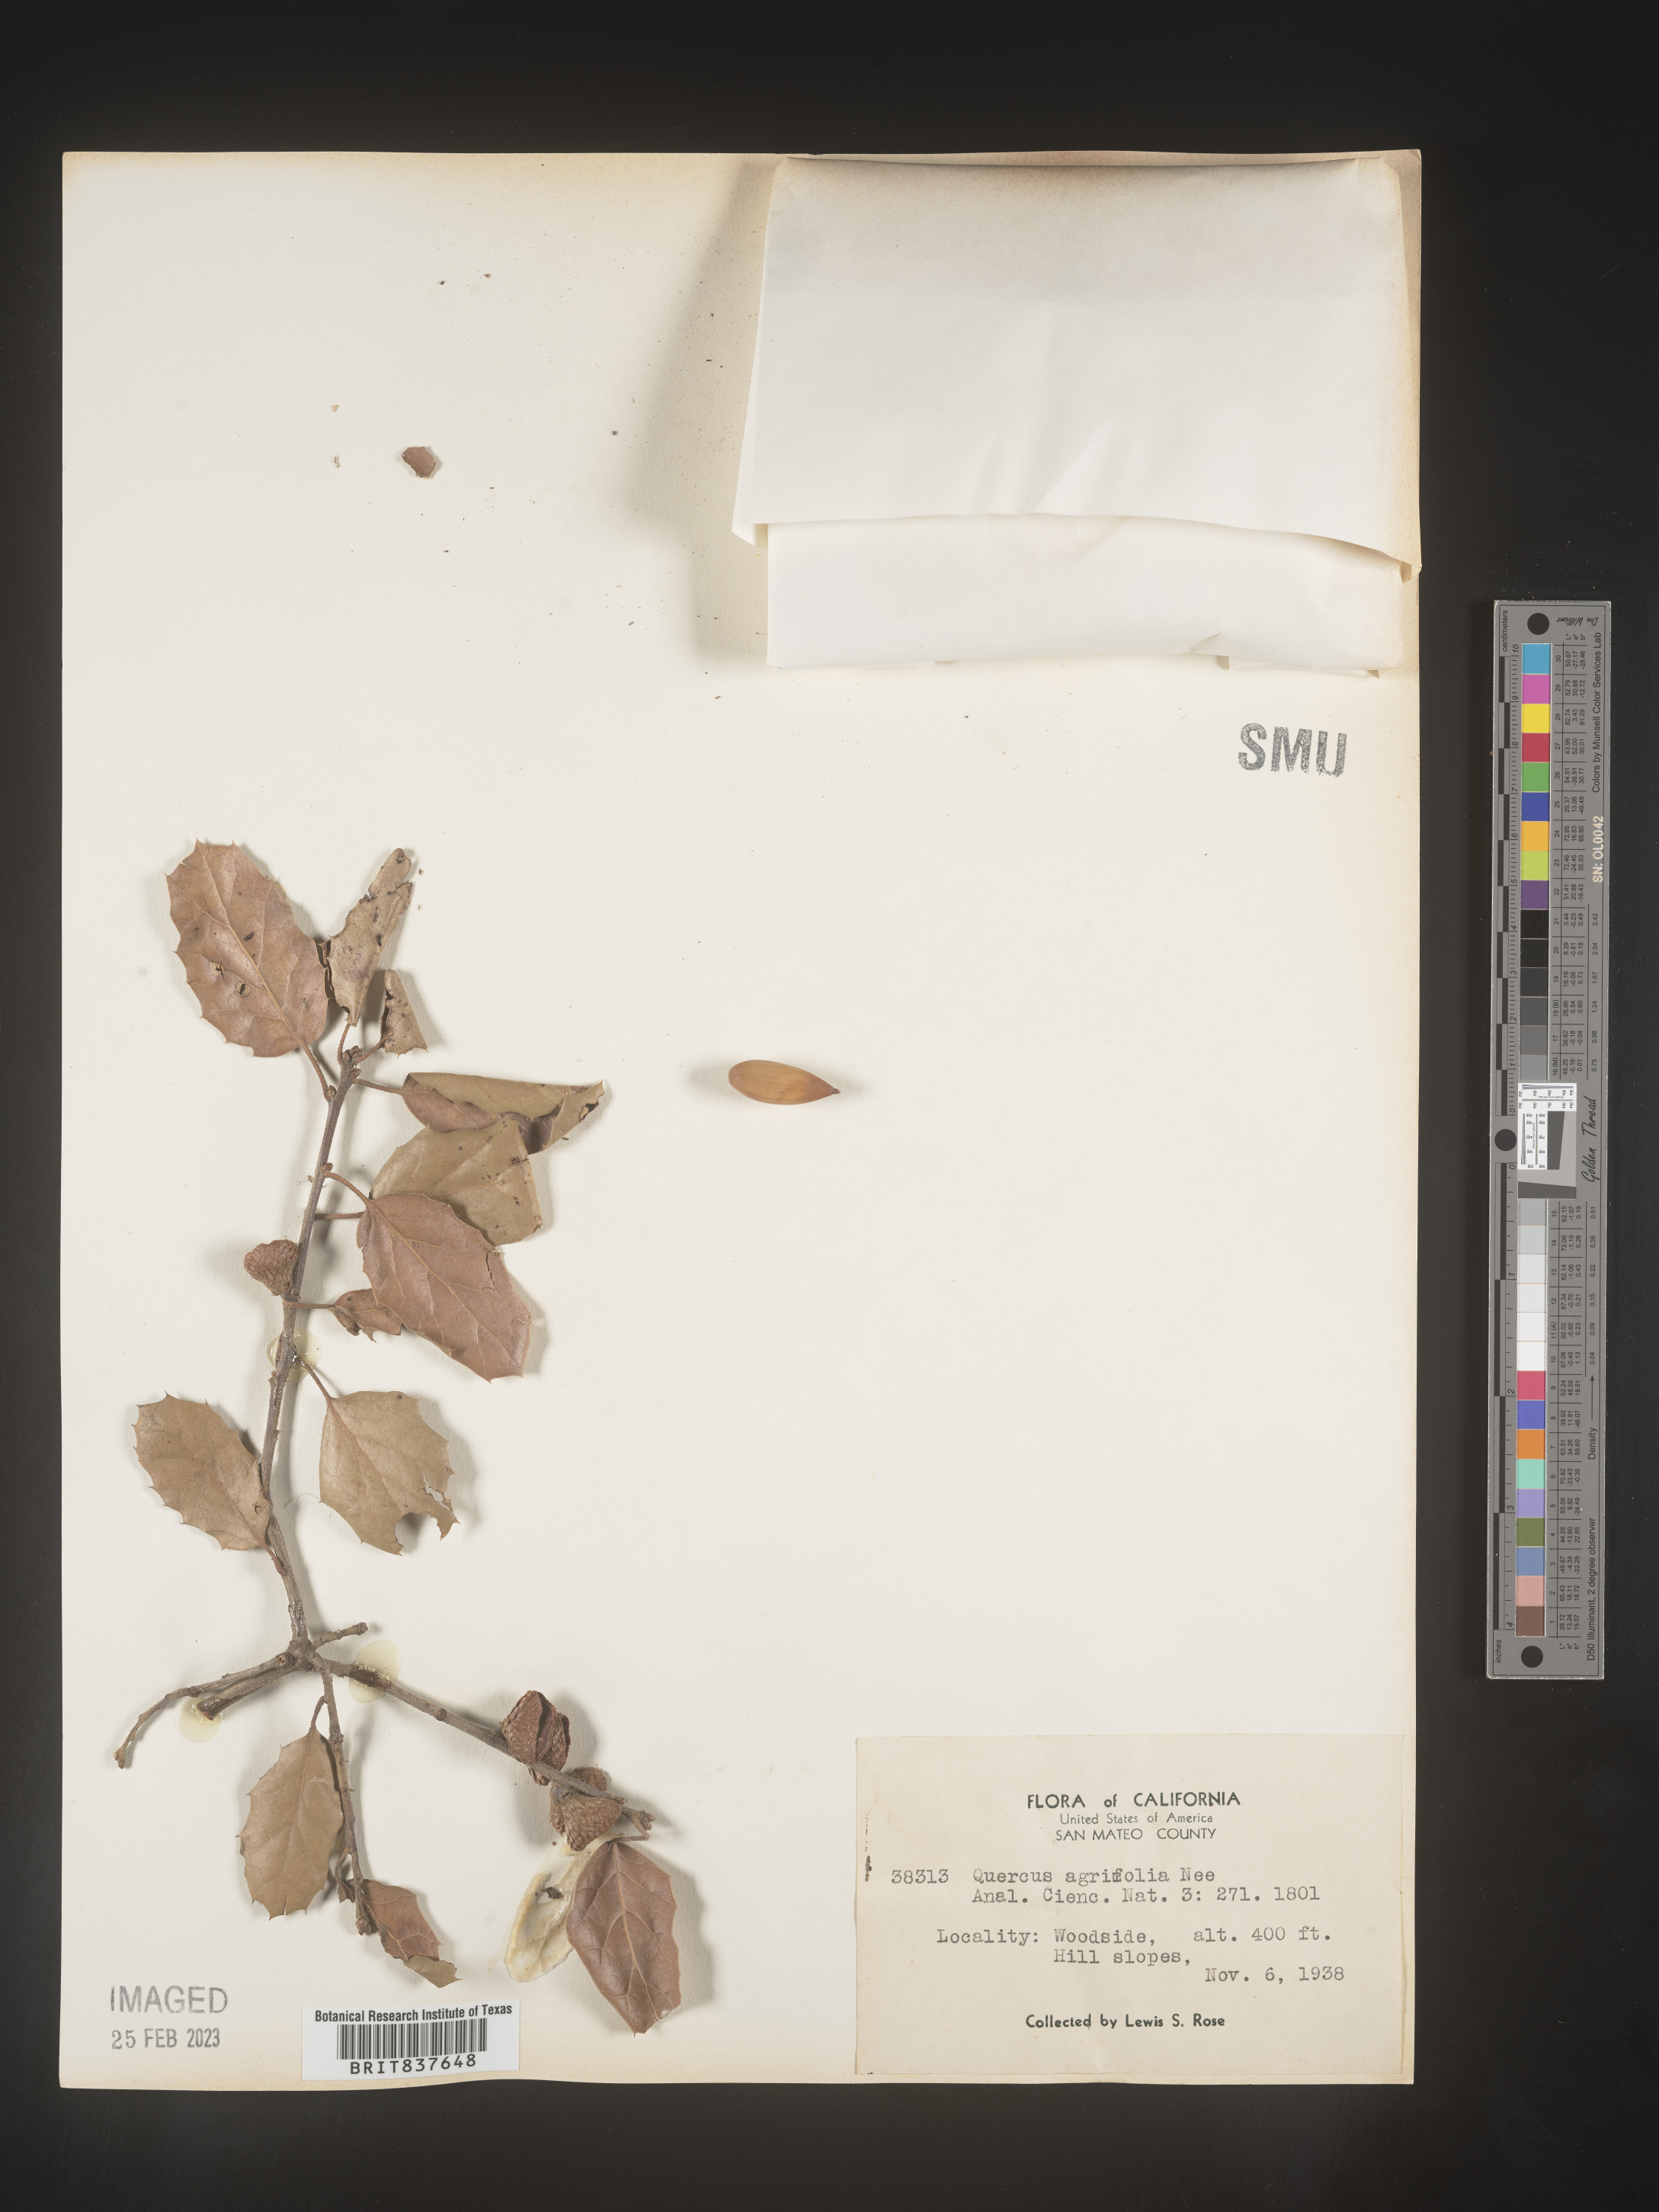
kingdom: Plantae
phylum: Tracheophyta
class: Magnoliopsida
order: Fagales
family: Fagaceae
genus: Quercus
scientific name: Quercus agrifolia
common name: California live oak
